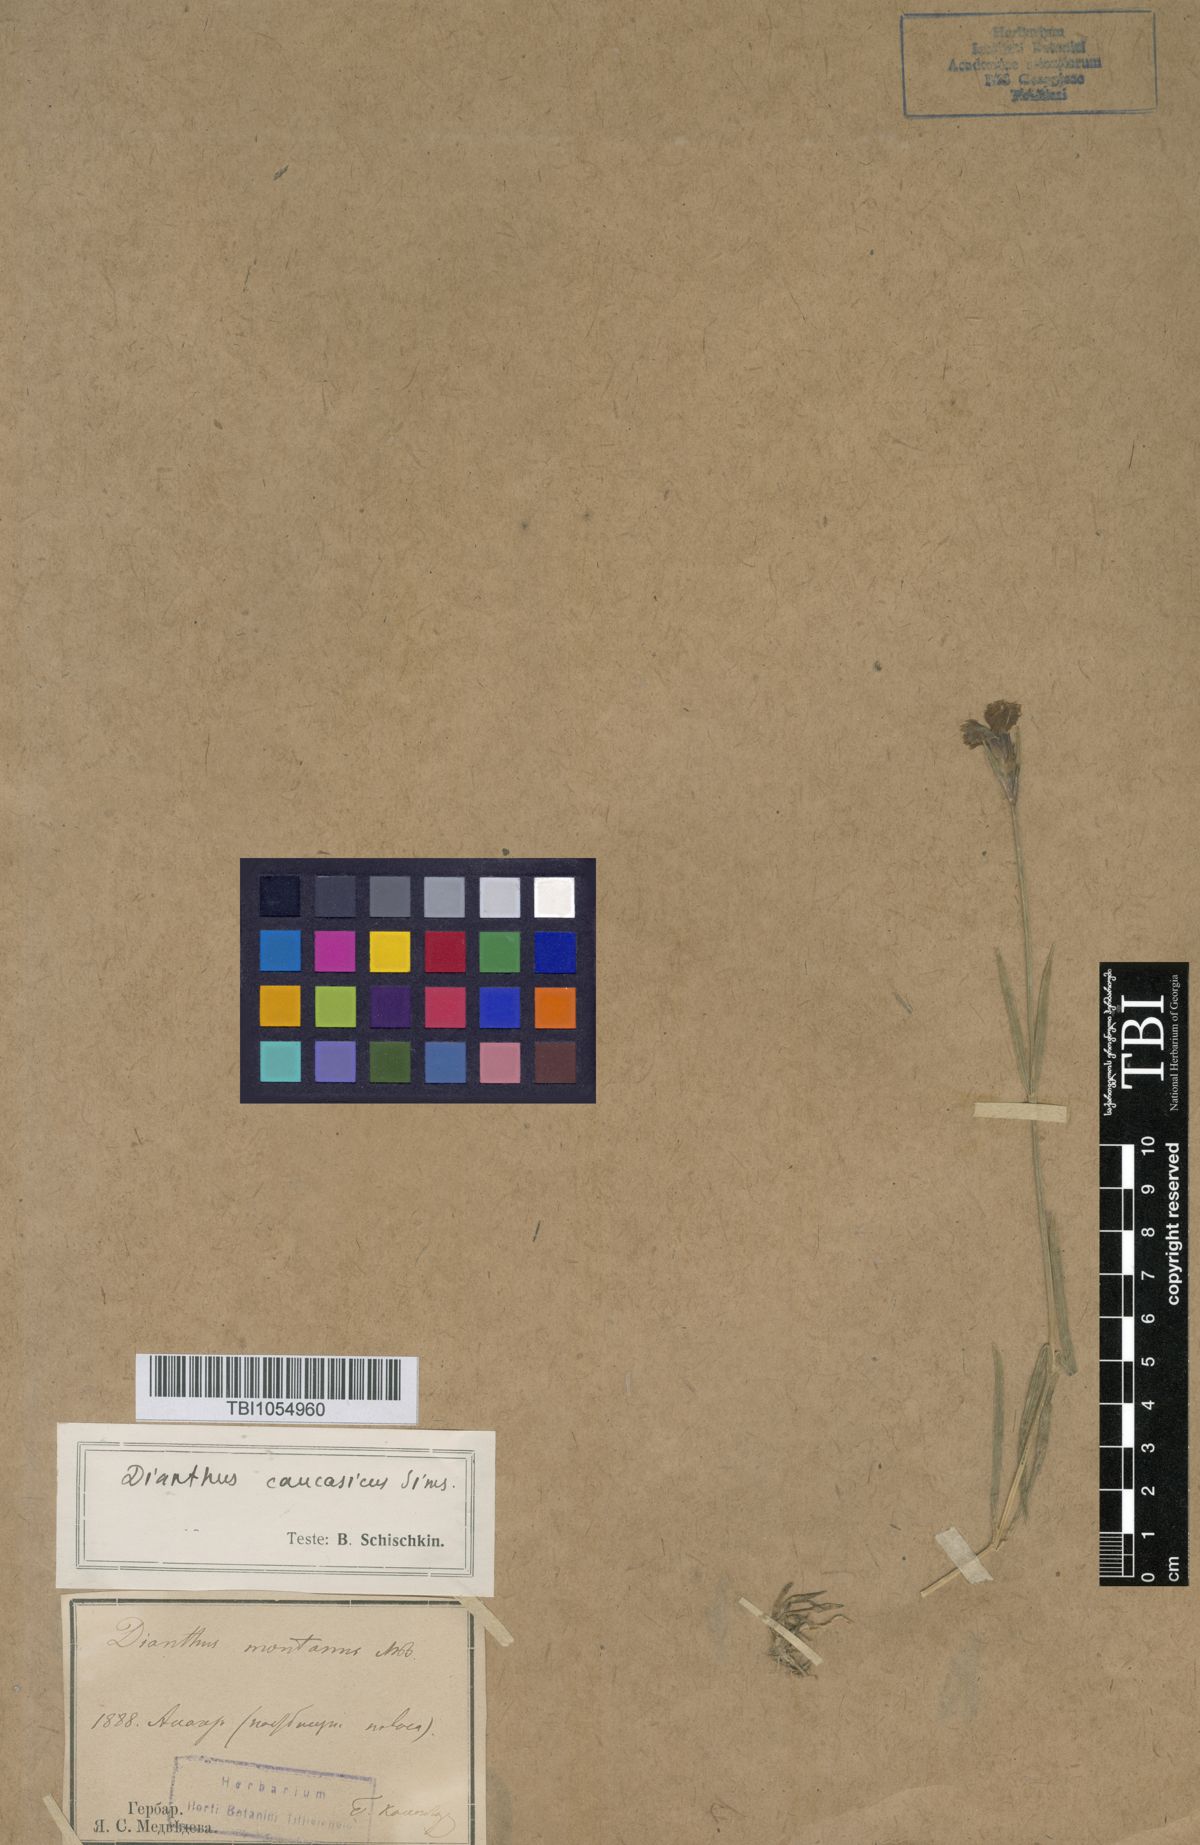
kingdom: Plantae
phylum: Tracheophyta
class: Magnoliopsida
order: Caryophyllales
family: Caryophyllaceae
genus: Dianthus
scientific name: Dianthus caucaseus
